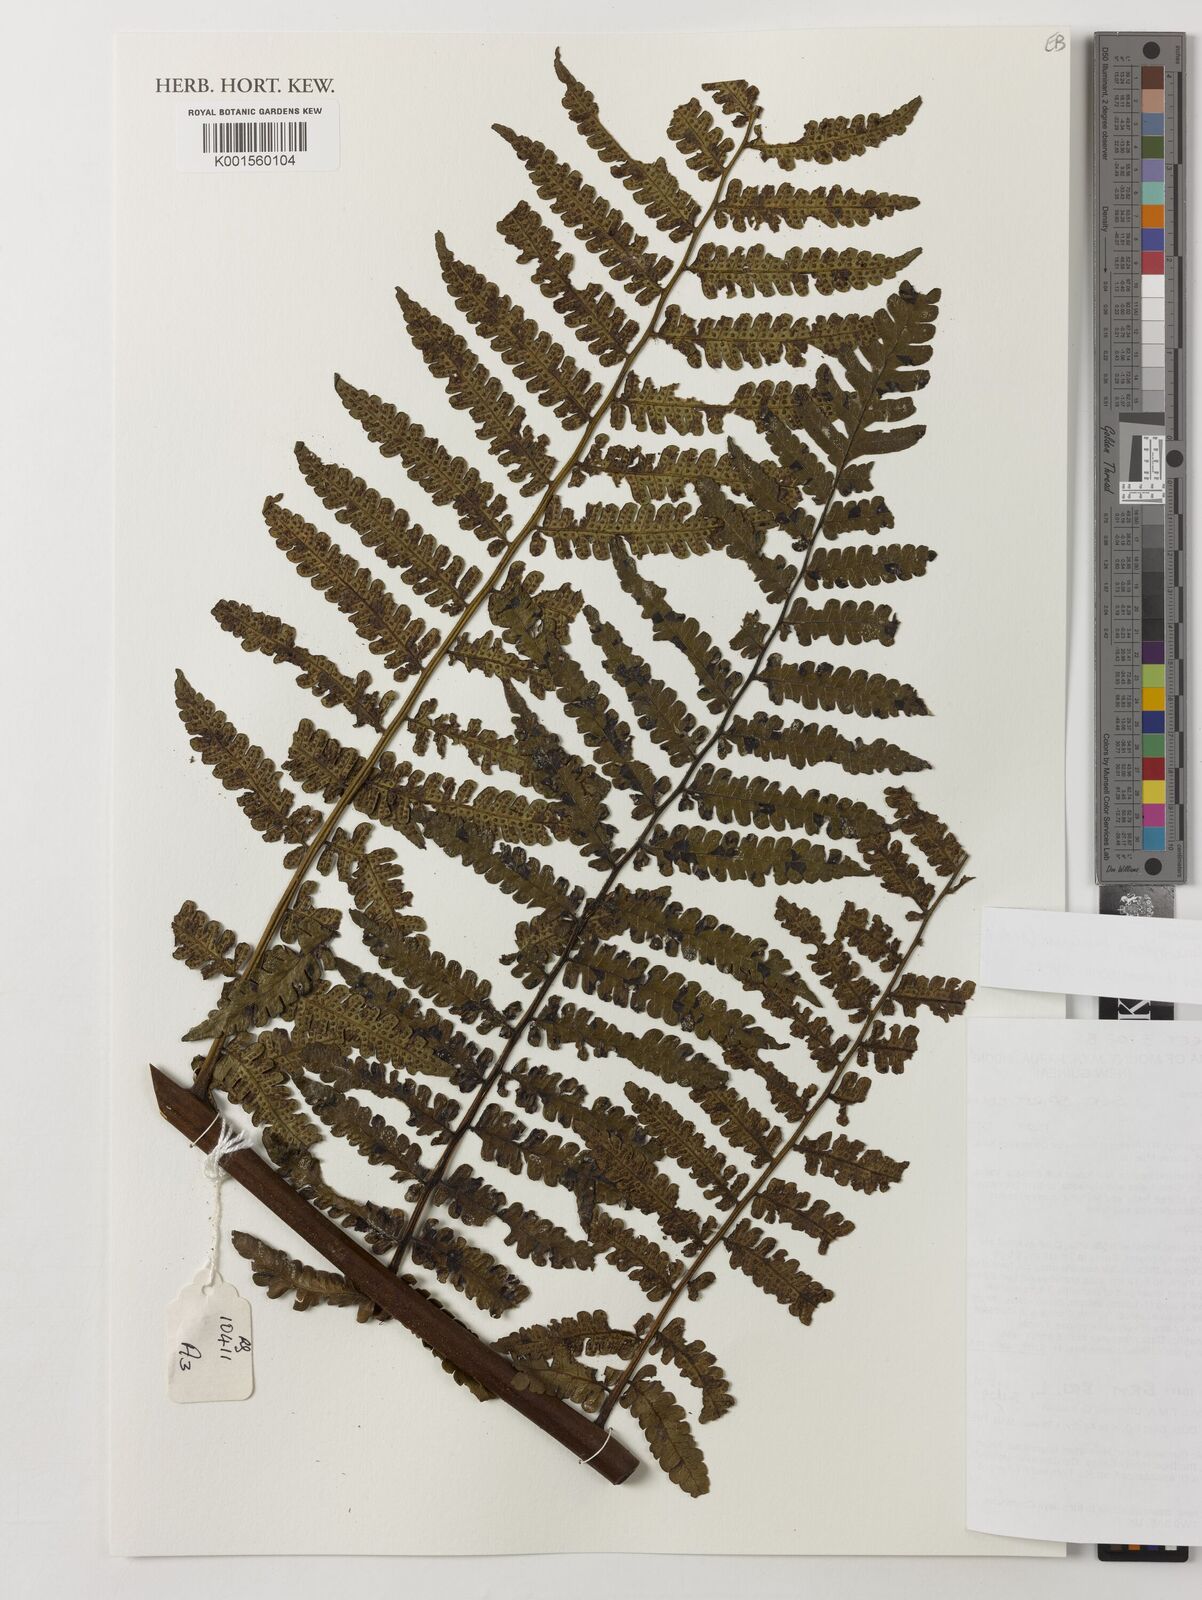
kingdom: Plantae
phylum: Tracheophyta
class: Polypodiopsida
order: Cyatheales
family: Cyatheaceae
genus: Sphaeropteris
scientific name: Sphaeropteris runensis
